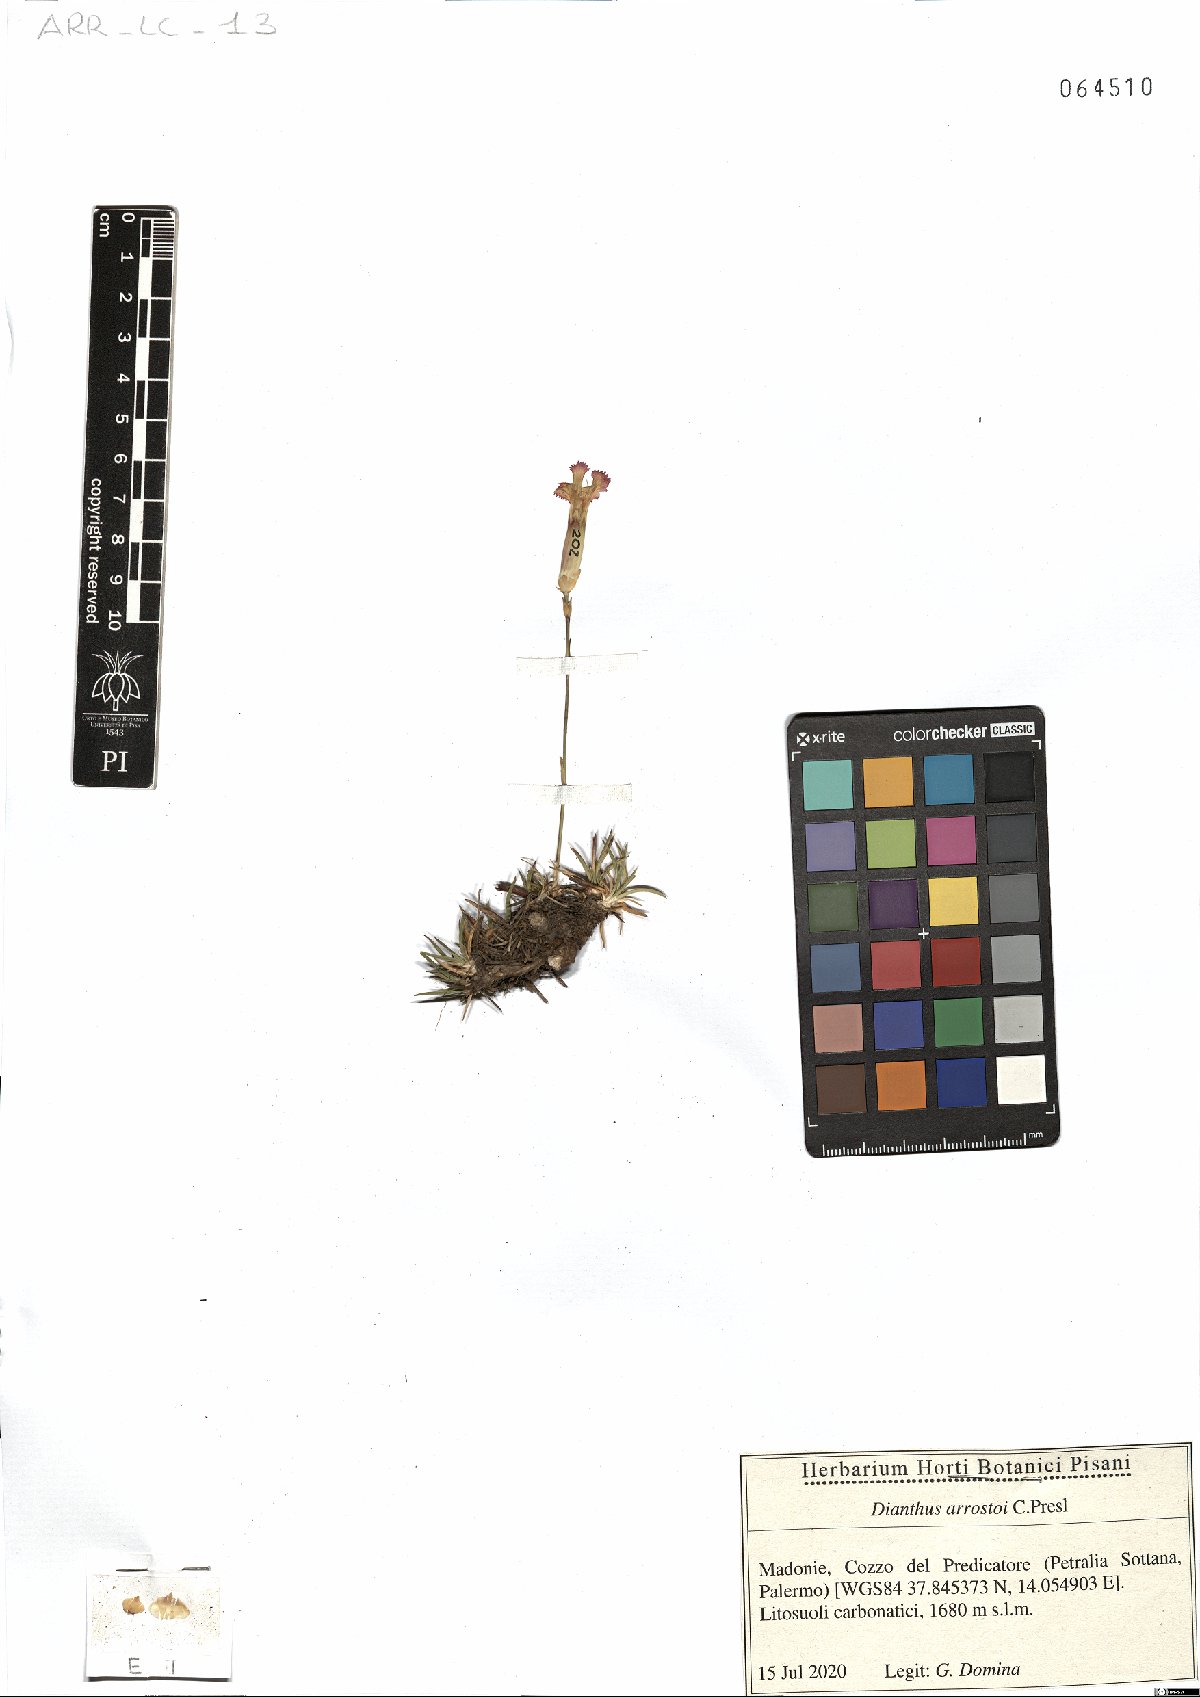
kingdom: Plantae
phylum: Tracheophyta
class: Magnoliopsida
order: Caryophyllales
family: Caryophyllaceae
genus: Dianthus
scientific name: Dianthus arrostoi
